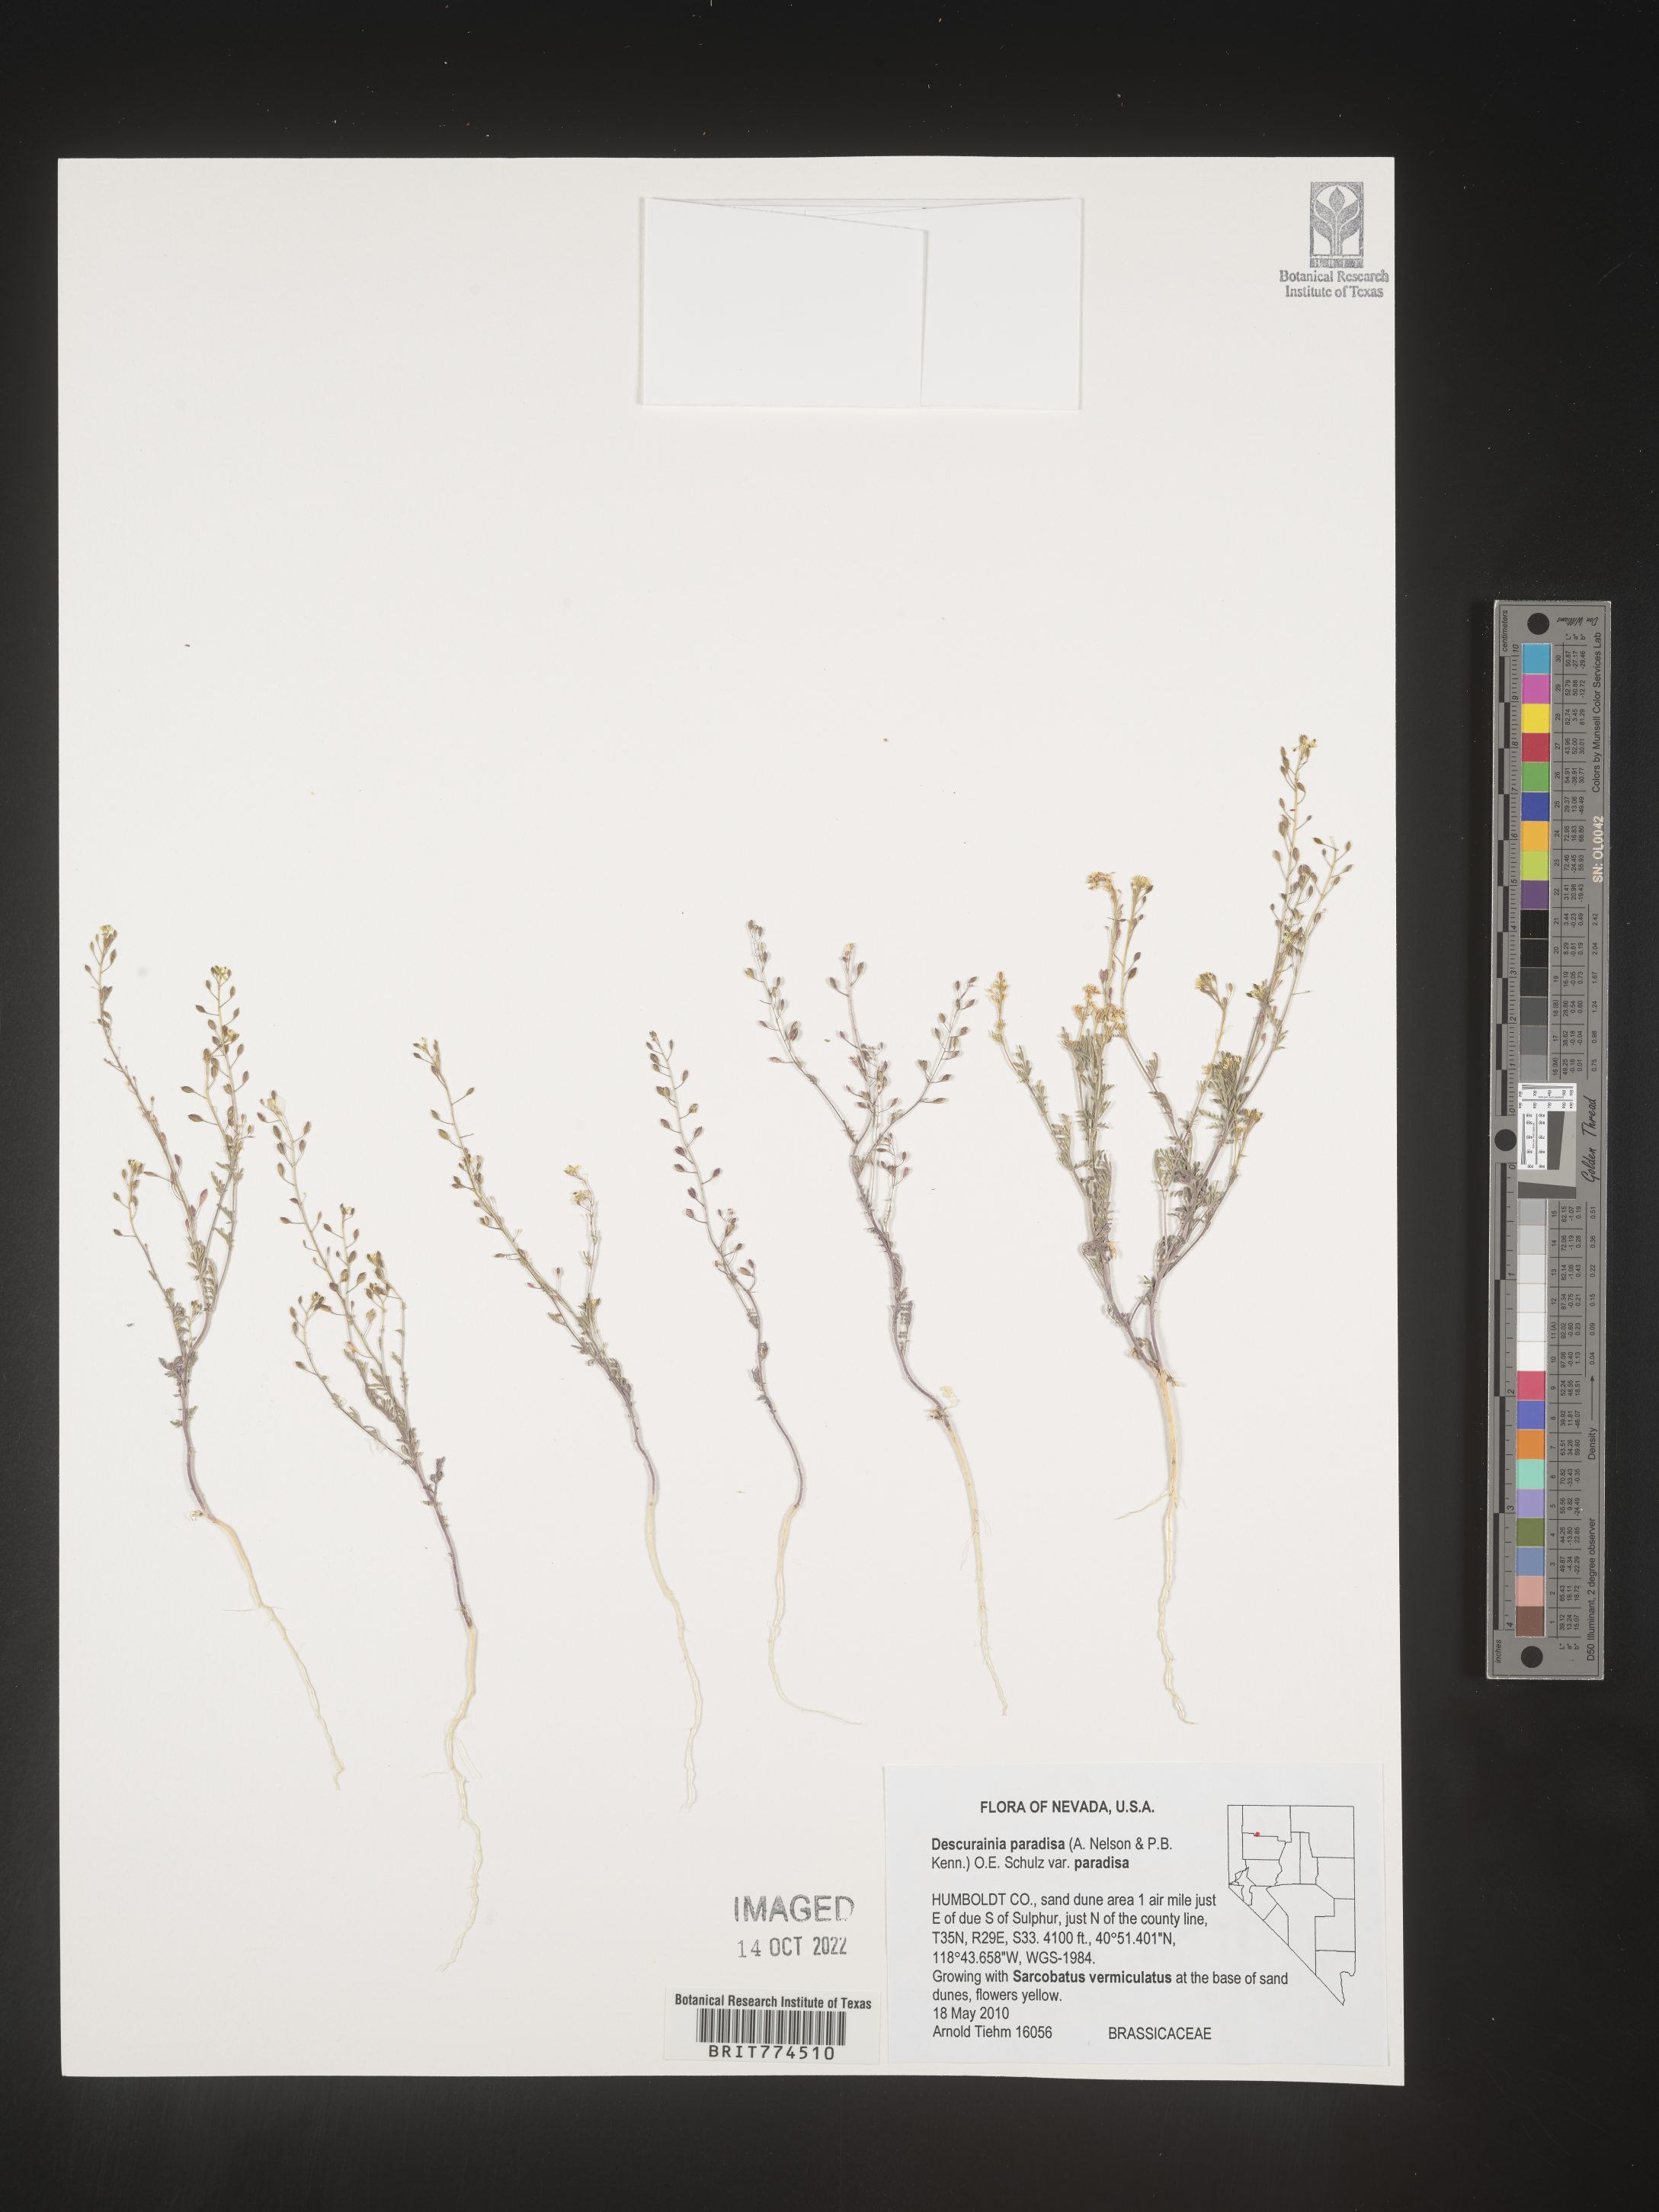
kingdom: Plantae
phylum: Tracheophyta
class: Magnoliopsida
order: Brassicales
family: Brassicaceae
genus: Descurainia
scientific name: Descurainia pinnata
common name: Western tansy mustard
